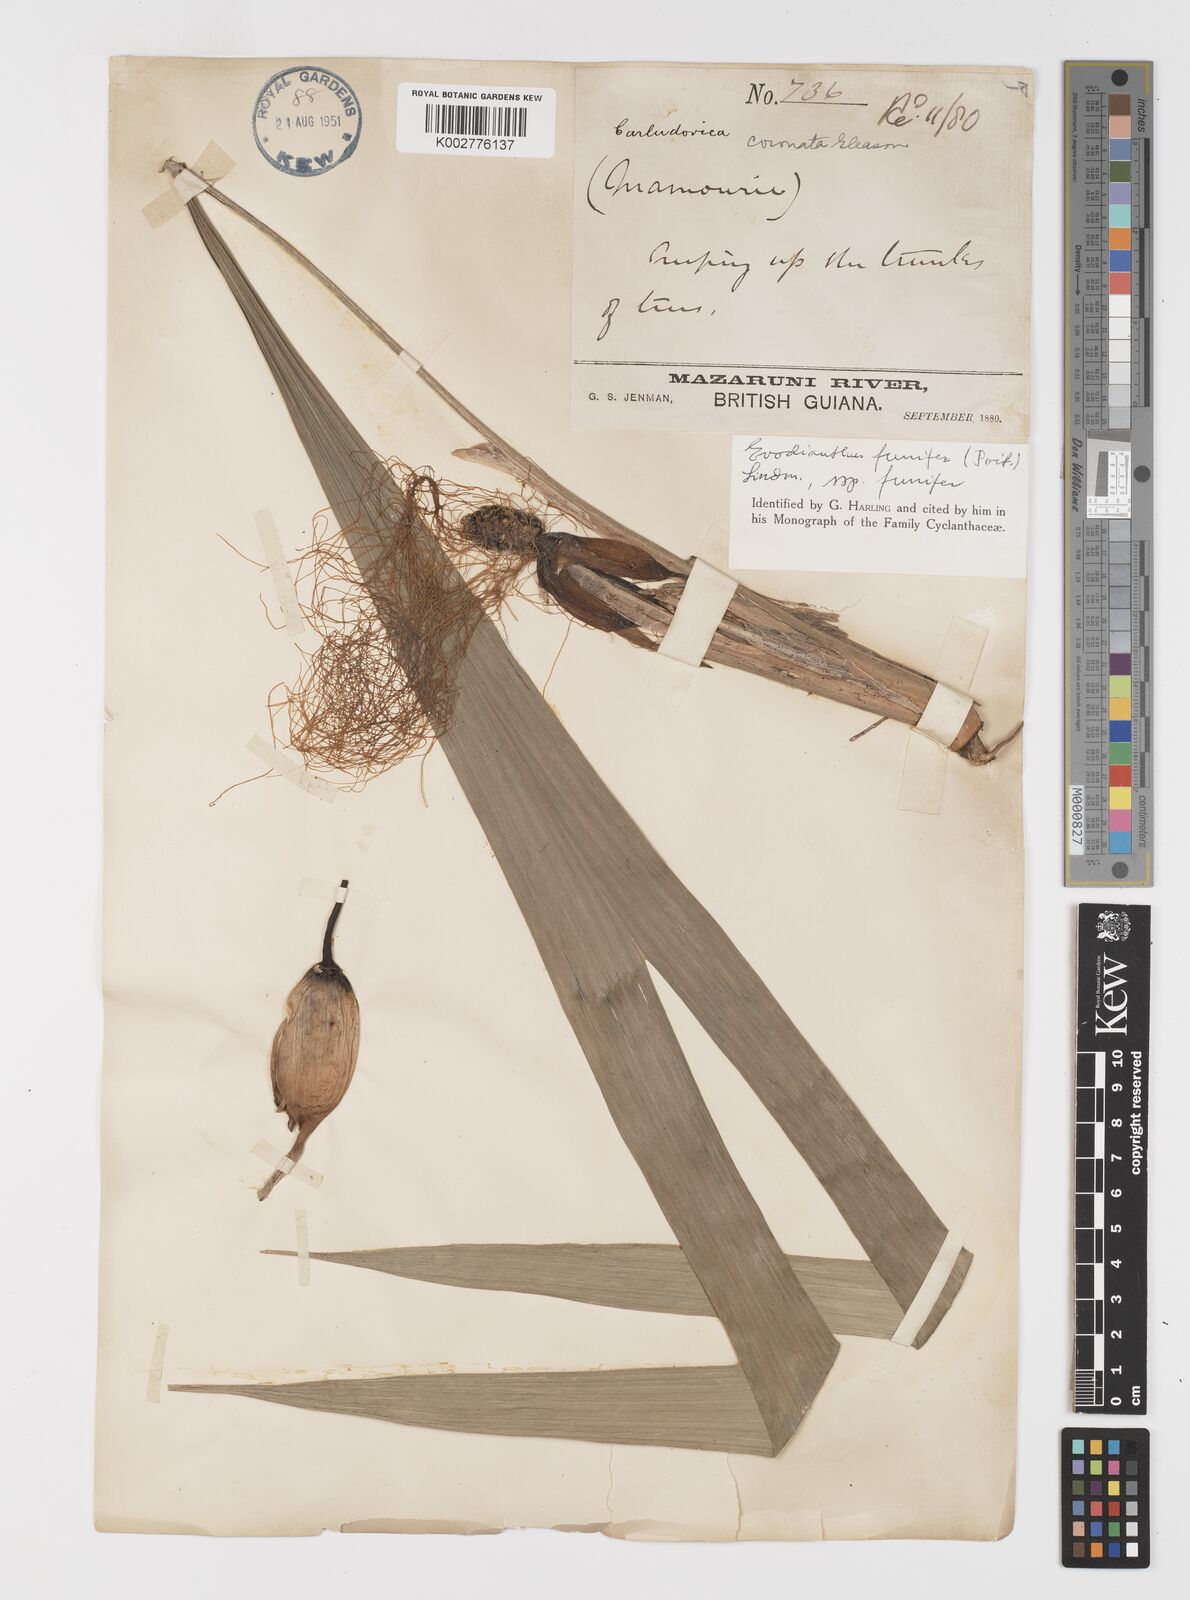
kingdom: Plantae
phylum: Tracheophyta
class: Liliopsida
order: Pandanales
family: Cyclanthaceae
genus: Evodianthus
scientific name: Evodianthus funifer
